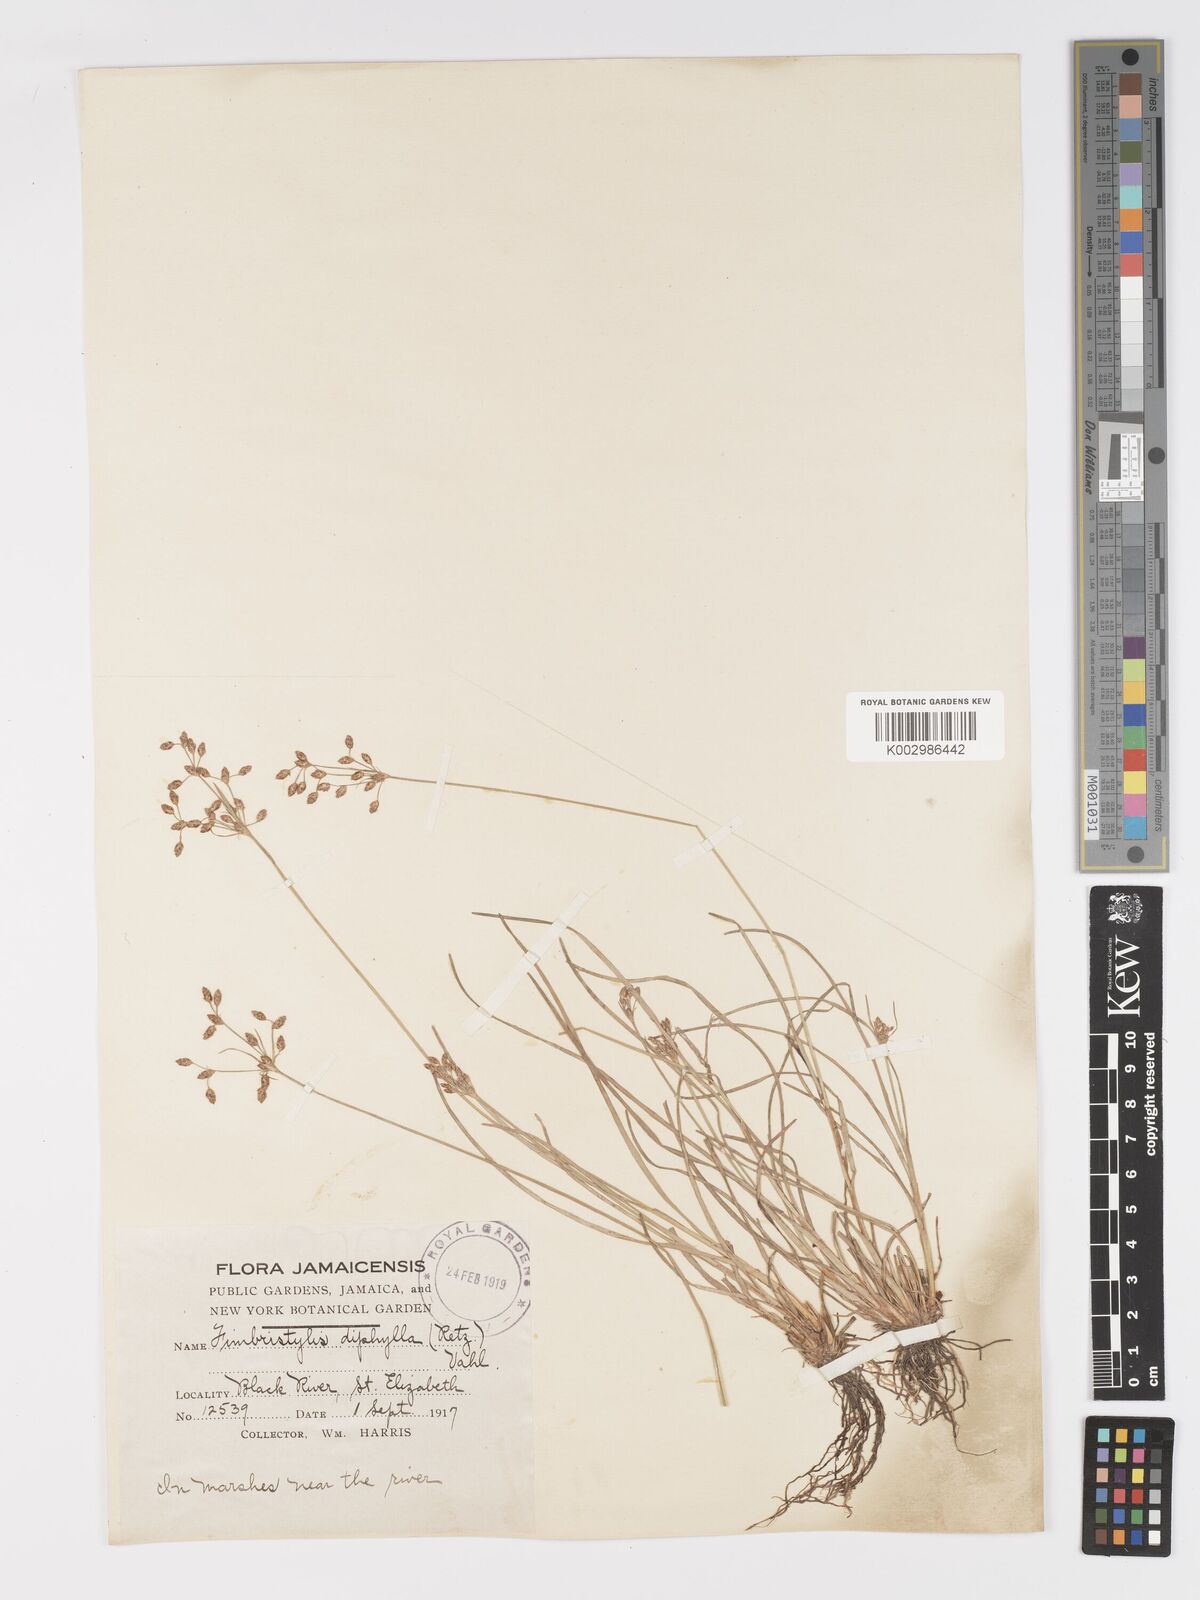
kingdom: Plantae
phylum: Tracheophyta
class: Liliopsida
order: Poales
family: Cyperaceae
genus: Fimbristylis
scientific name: Fimbristylis dichotoma
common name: Forked fimbry
